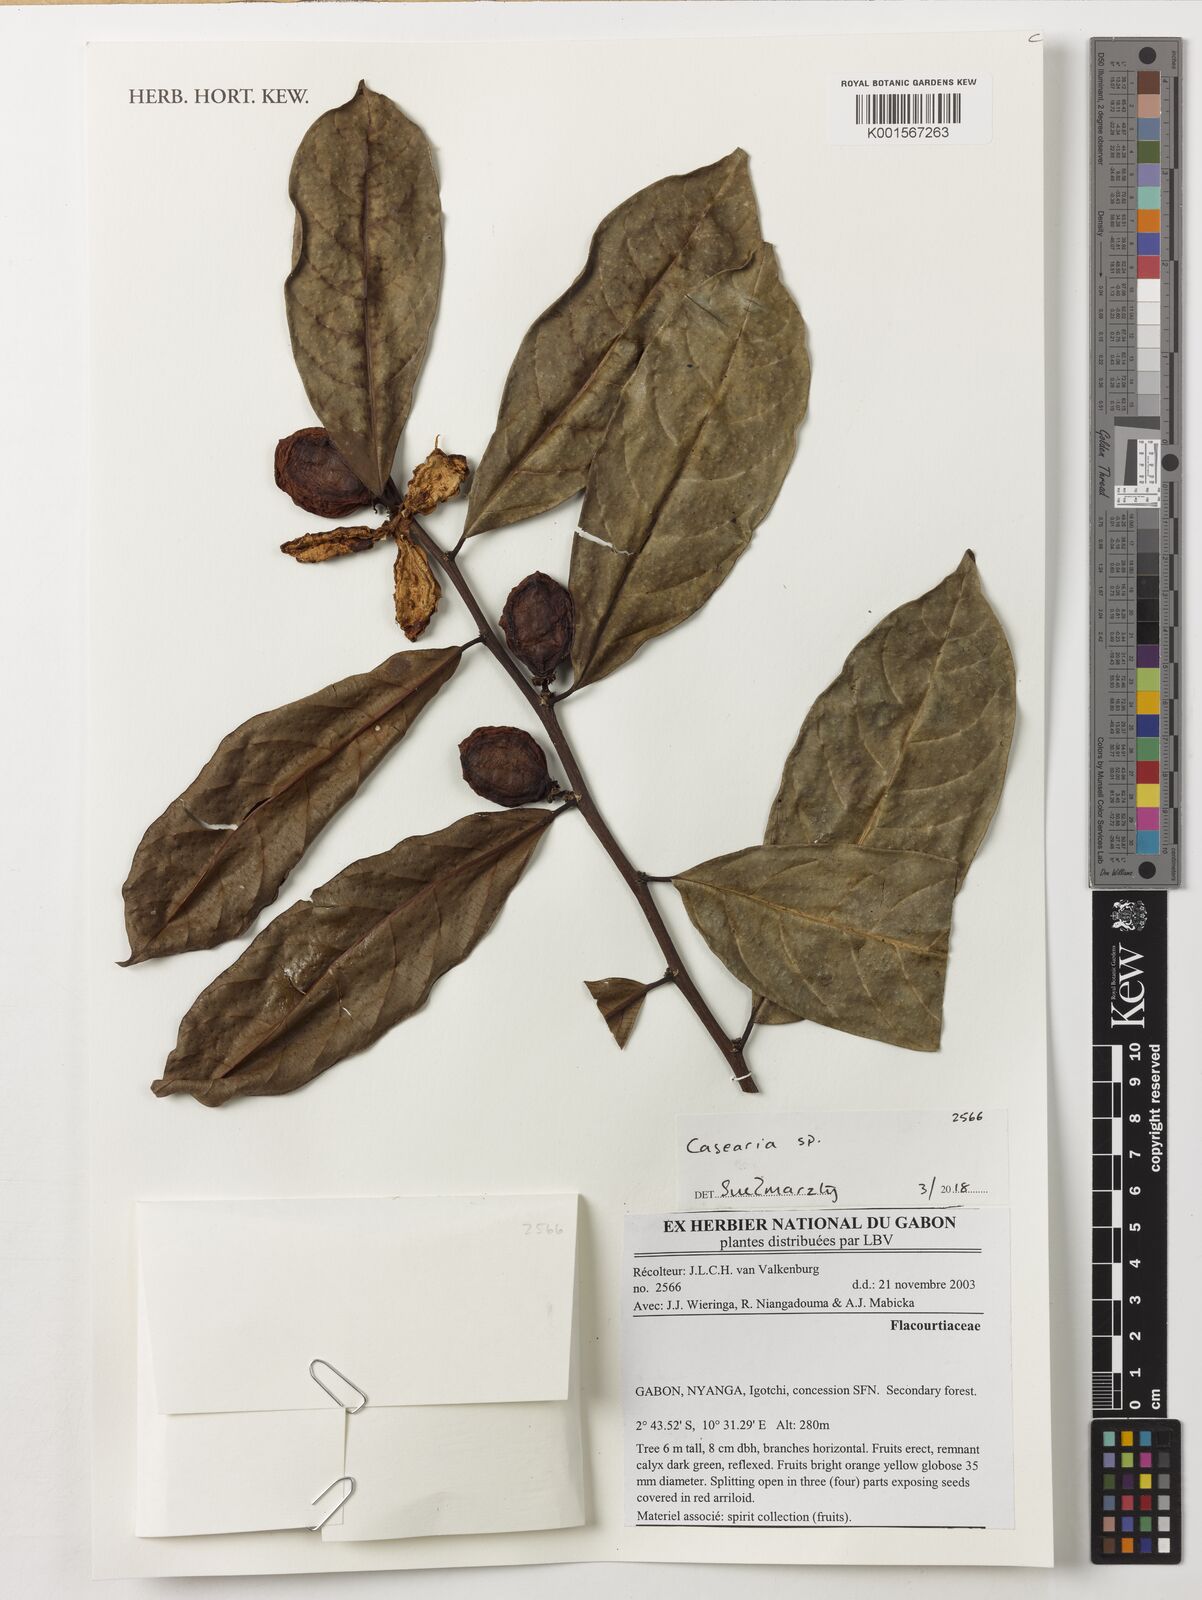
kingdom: Plantae
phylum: Tracheophyta
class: Magnoliopsida
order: Malpighiales
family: Salicaceae
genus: Casearia
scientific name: Casearia
